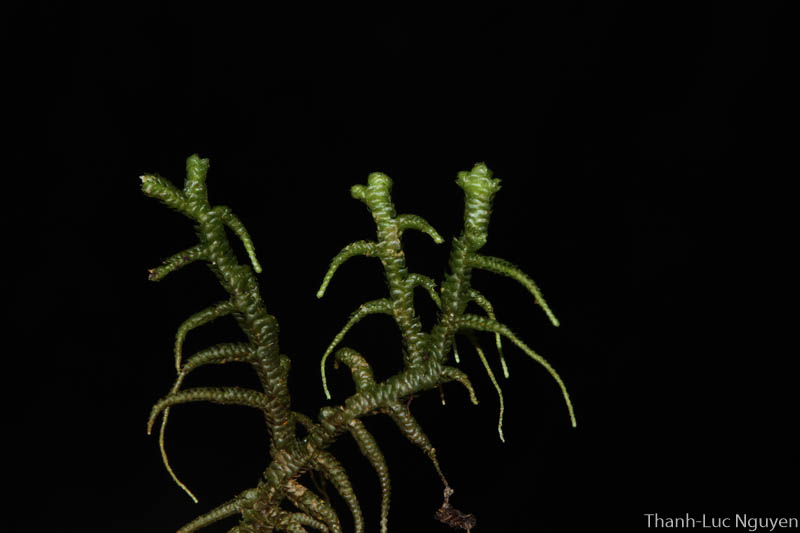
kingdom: Plantae
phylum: Marchantiophyta
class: Jungermanniopsida
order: Jungermanniales
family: Mastigophoraceae
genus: Mastigophora
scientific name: Mastigophora
